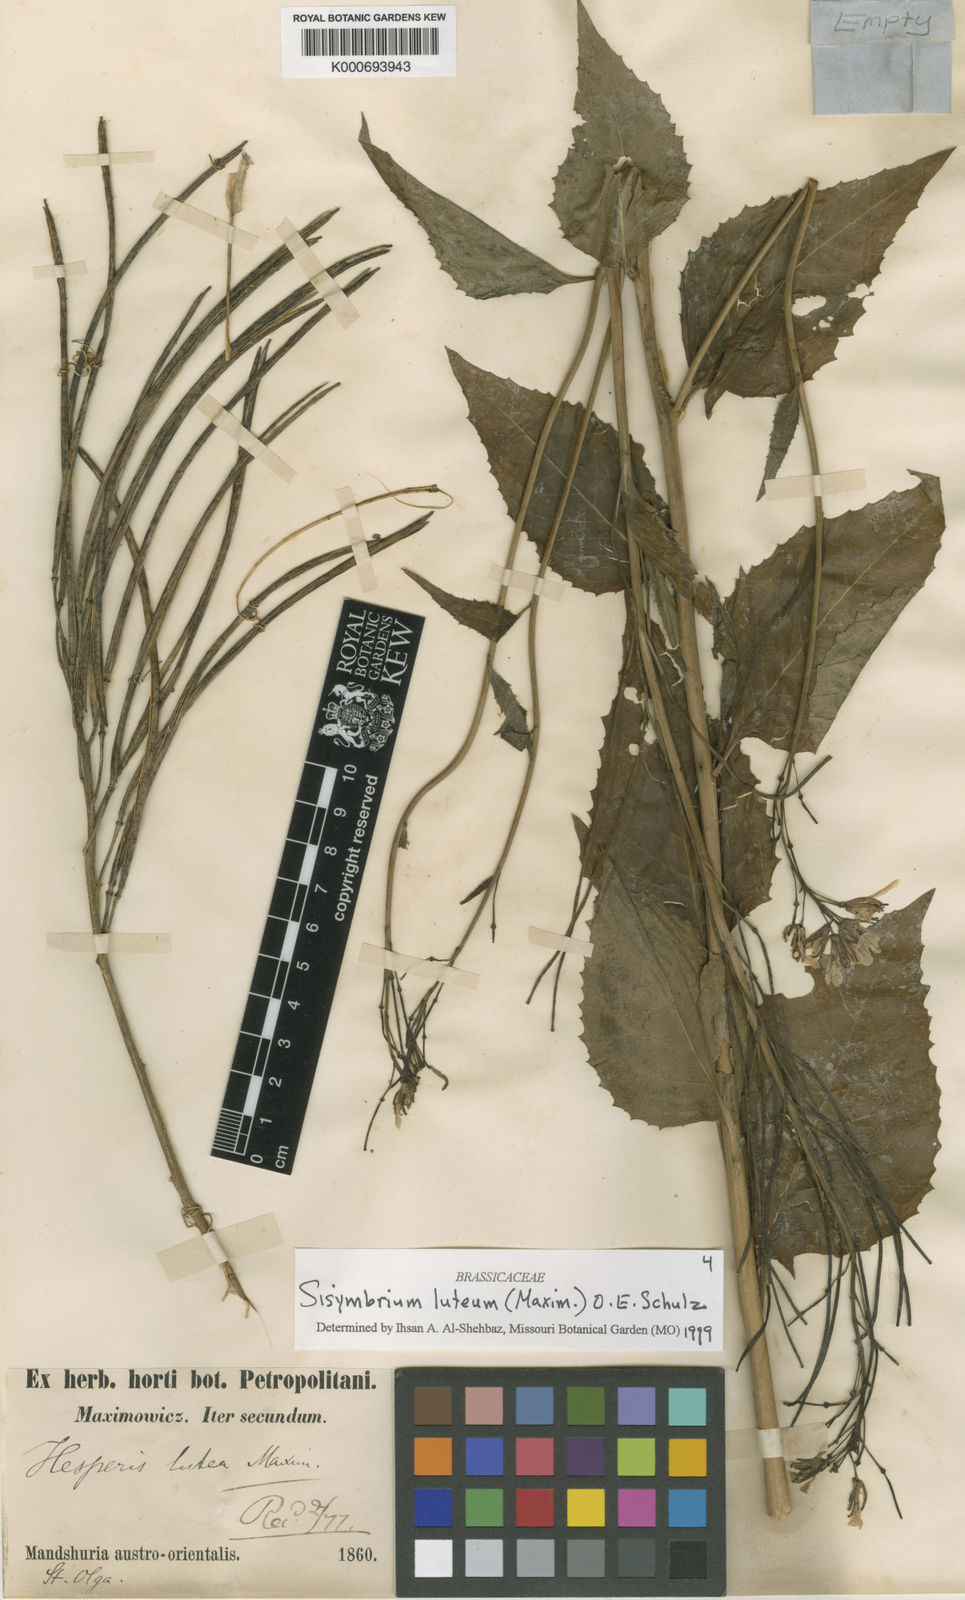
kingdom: Plantae
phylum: Tracheophyta
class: Magnoliopsida
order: Brassicales
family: Brassicaceae
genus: Sisymbrium
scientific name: Sisymbrium luteum
